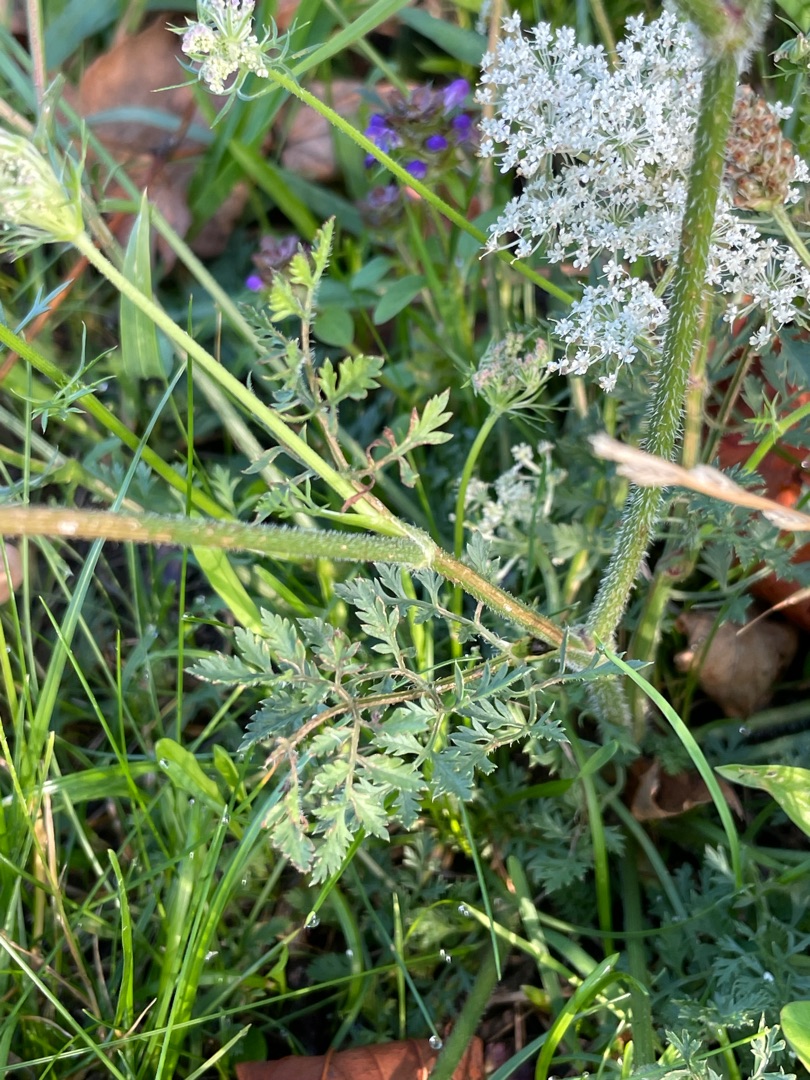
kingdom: Plantae
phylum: Tracheophyta
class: Magnoliopsida
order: Apiales
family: Apiaceae
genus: Daucus
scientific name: Daucus carota
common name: Gulerod
